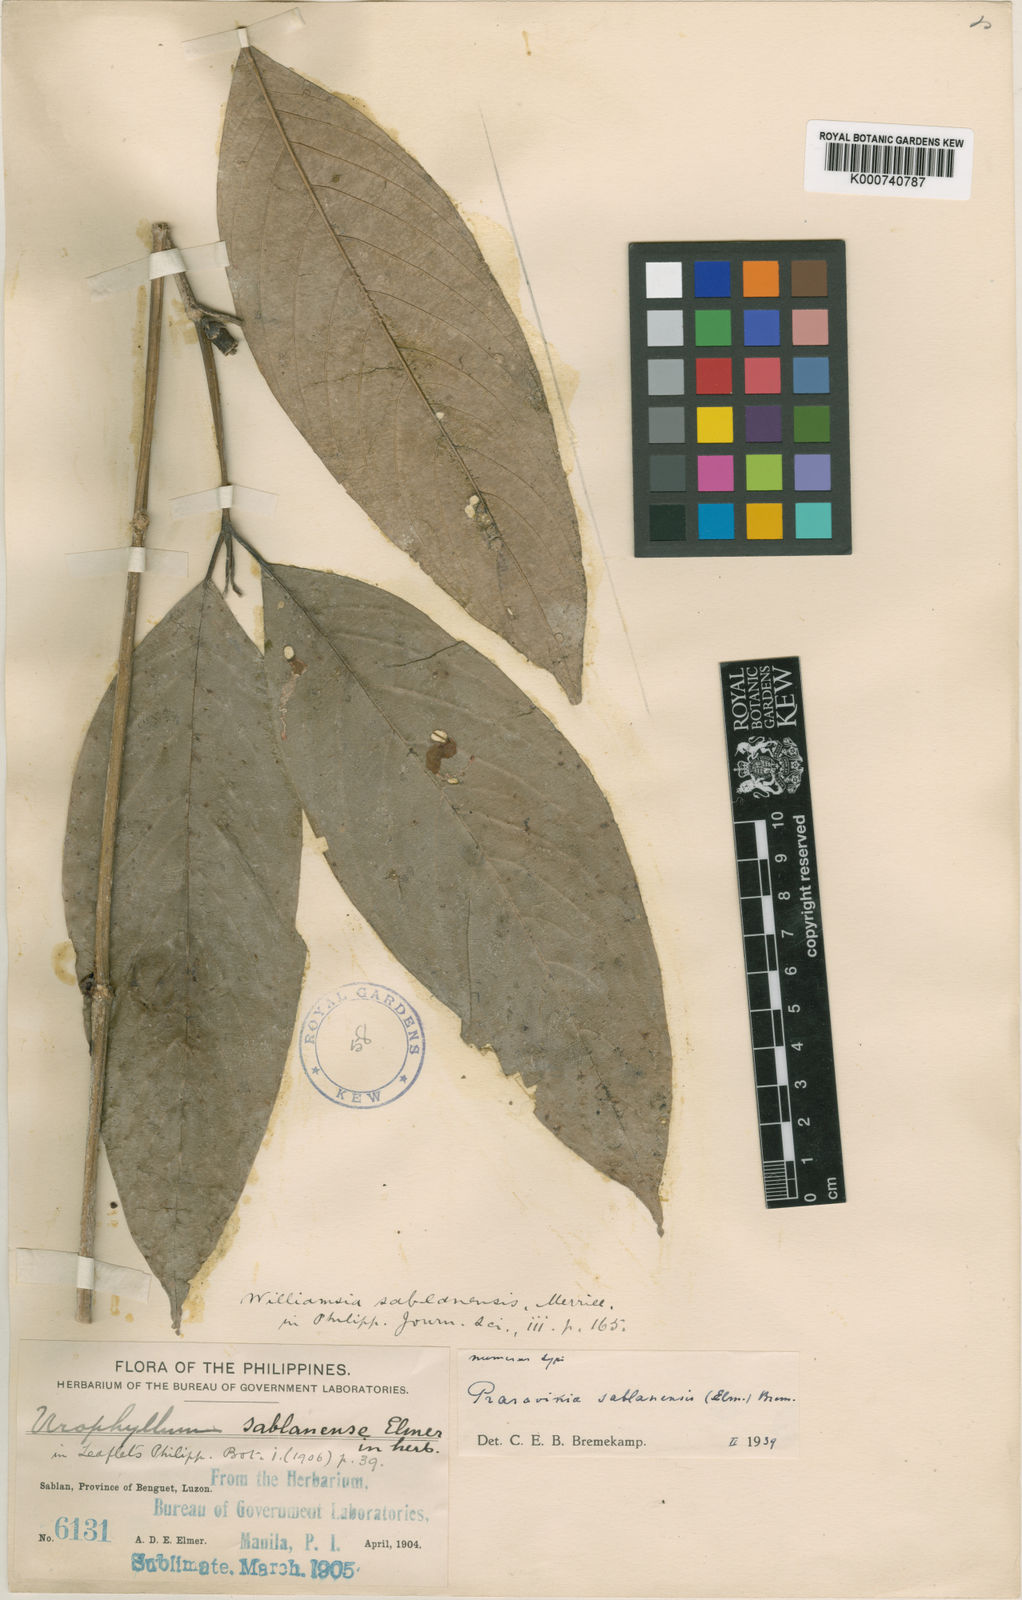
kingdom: Plantae
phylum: Tracheophyta
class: Magnoliopsida
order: Gentianales
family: Rubiaceae
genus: Praravinia
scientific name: Praravinia sablanensis
